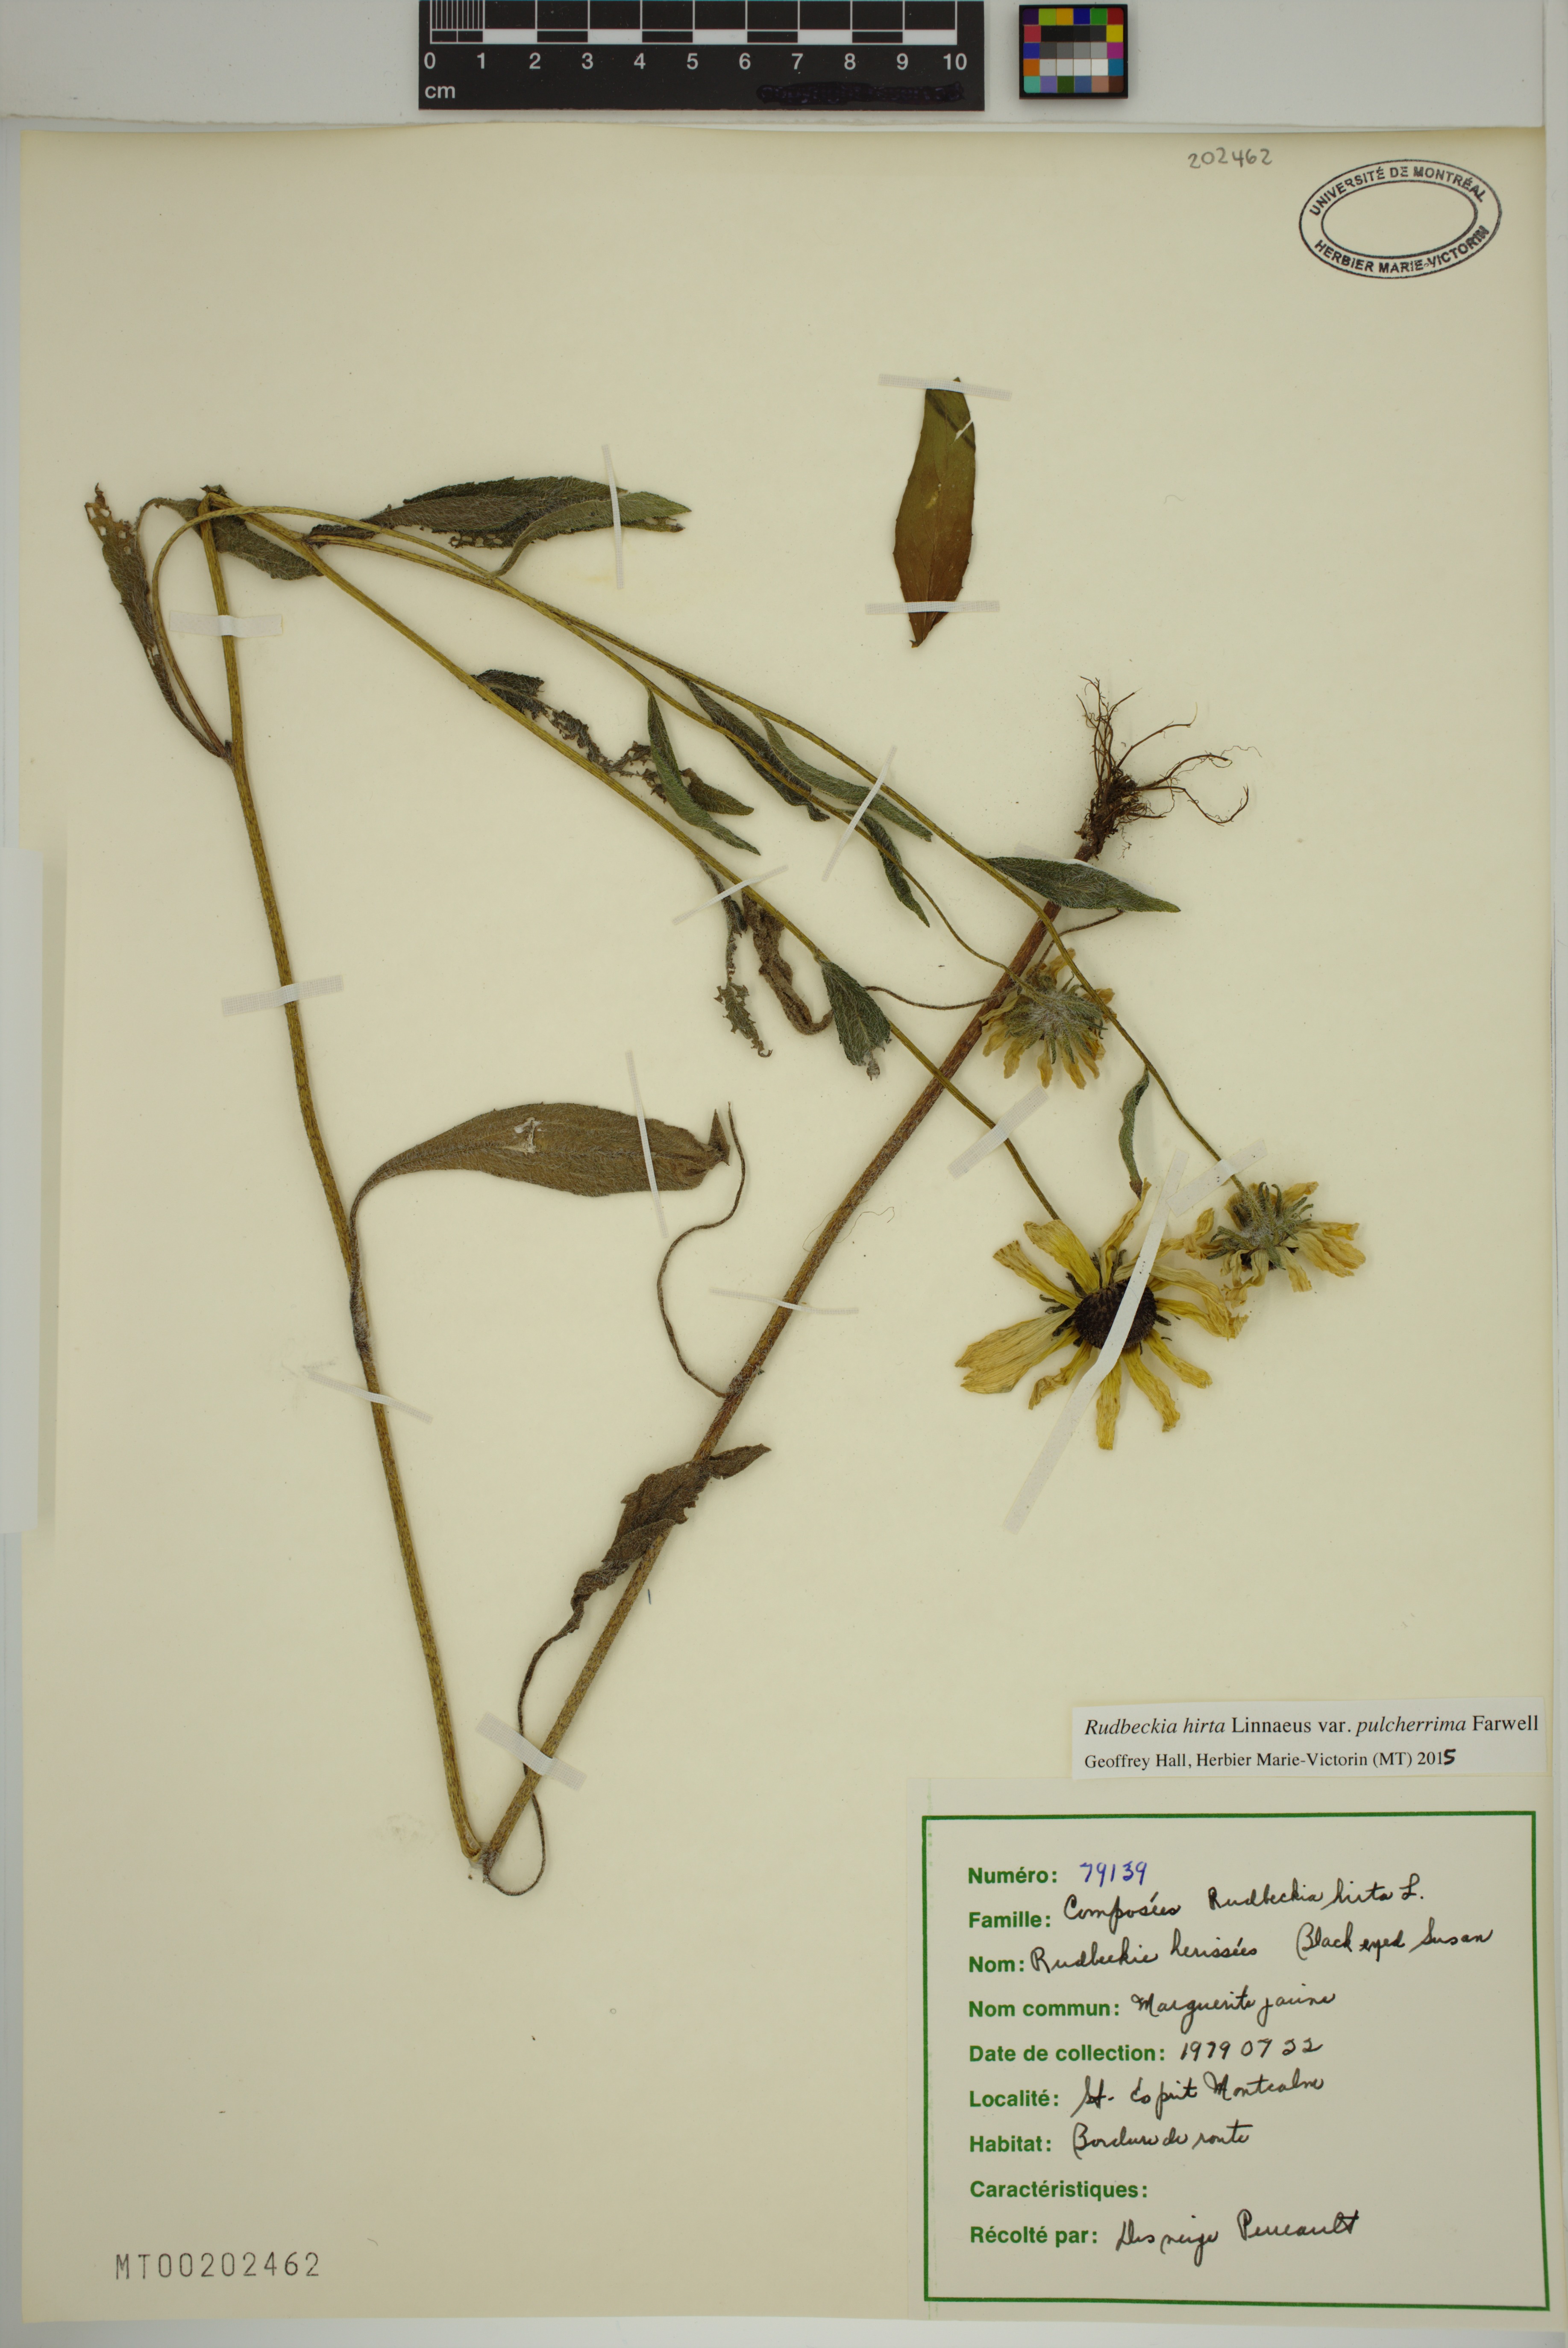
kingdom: Plantae
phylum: Tracheophyta
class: Magnoliopsida
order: Asterales
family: Asteraceae
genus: Rudbeckia
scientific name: Rudbeckia hirta
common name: Black-eyed-susan
